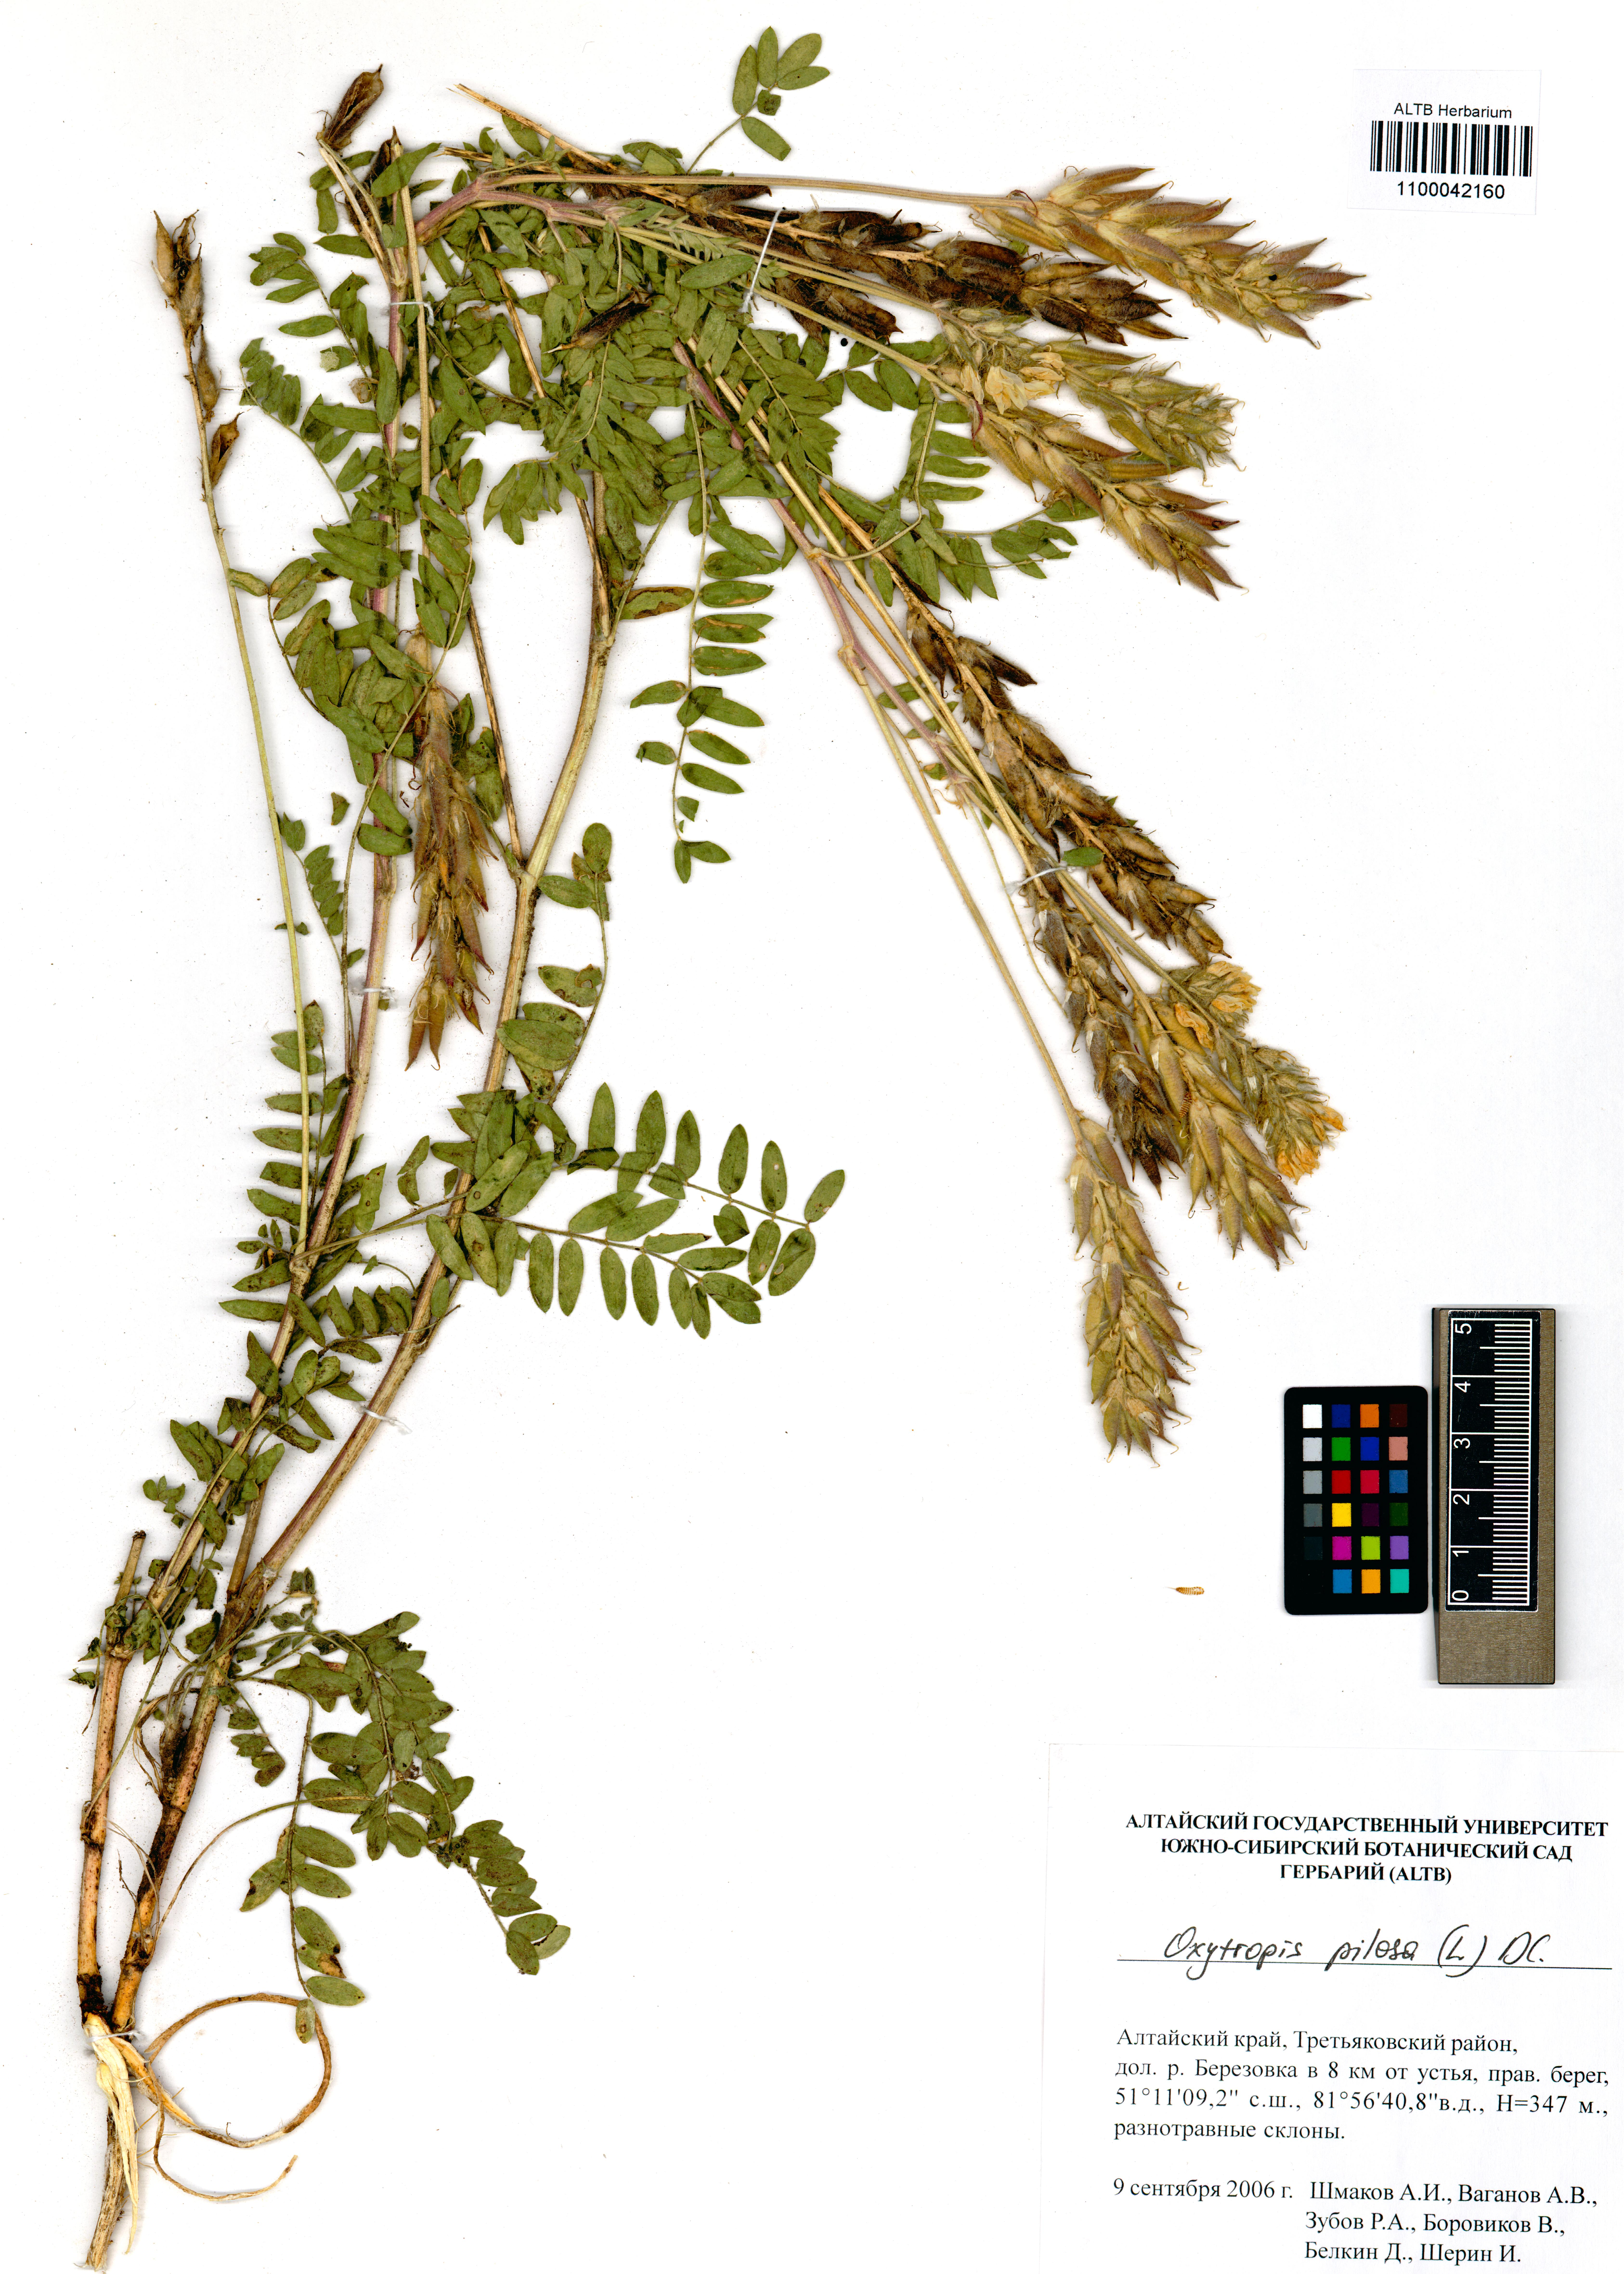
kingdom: Plantae
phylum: Tracheophyta
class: Magnoliopsida
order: Fabales
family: Fabaceae
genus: Oxytropis
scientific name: Oxytropis pilosa
